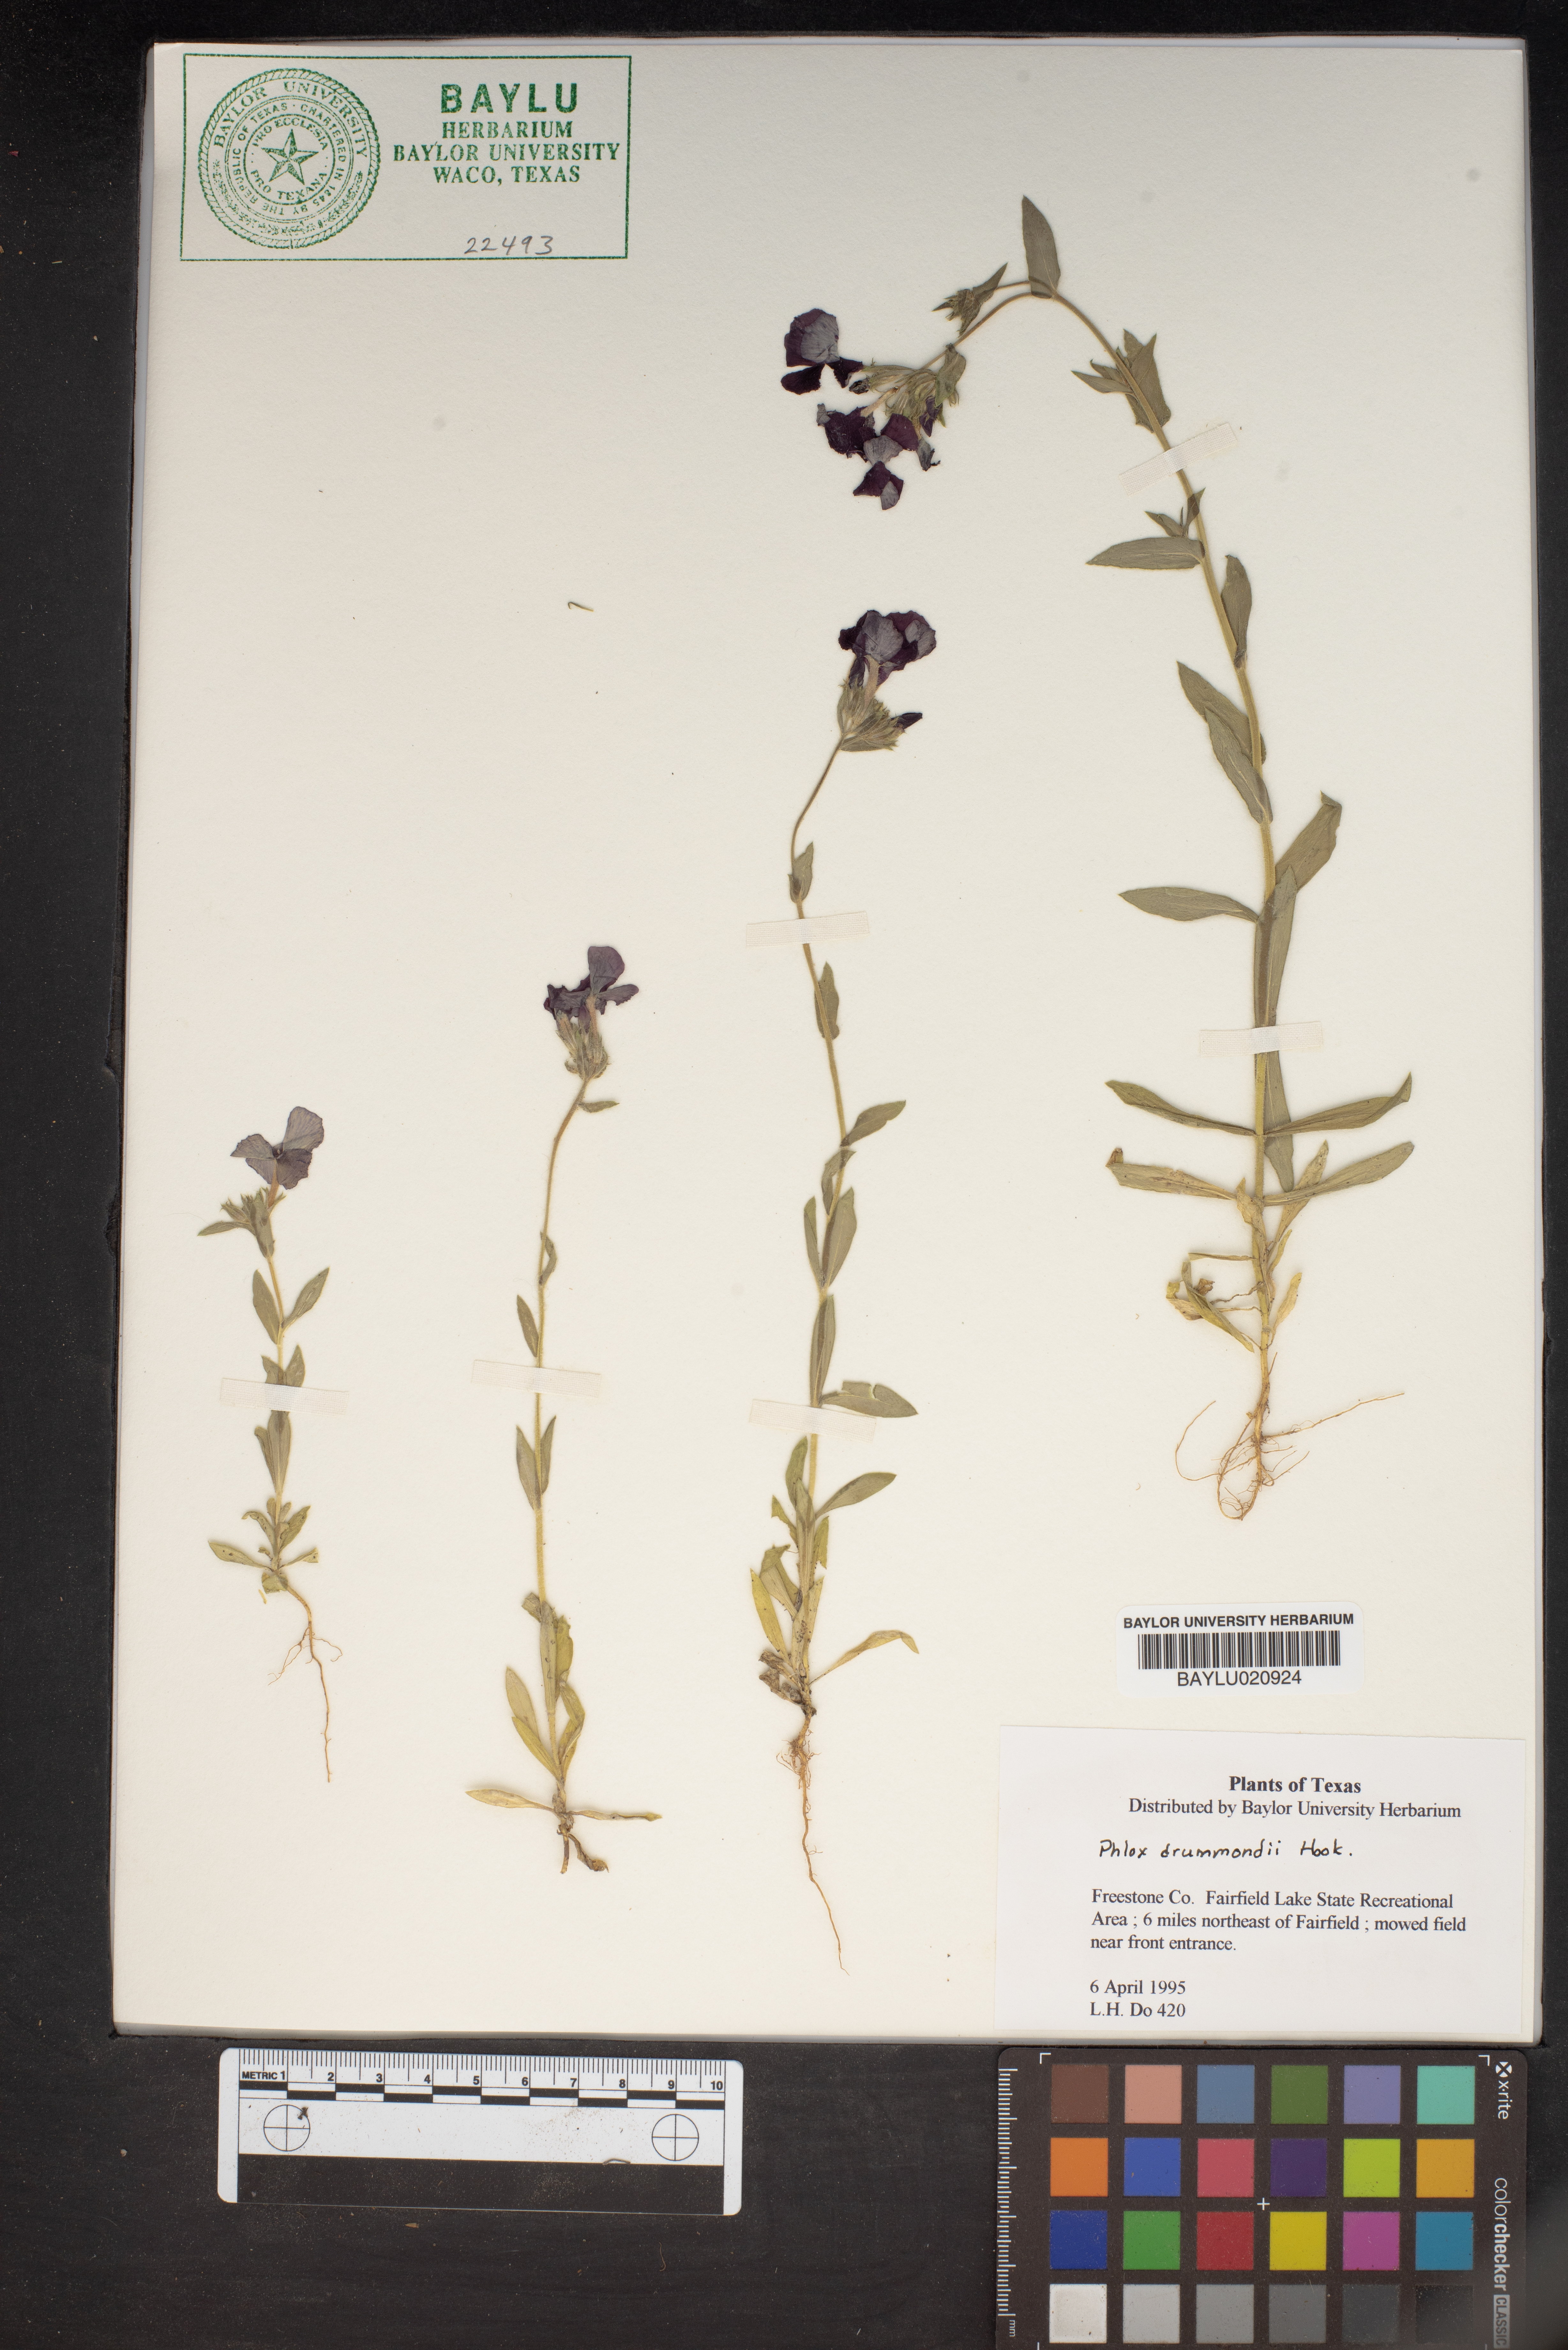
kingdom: Plantae
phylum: Tracheophyta
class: Magnoliopsida
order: Ericales
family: Polemoniaceae
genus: Phlox
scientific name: Phlox drummondii
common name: Drummond's phlox
